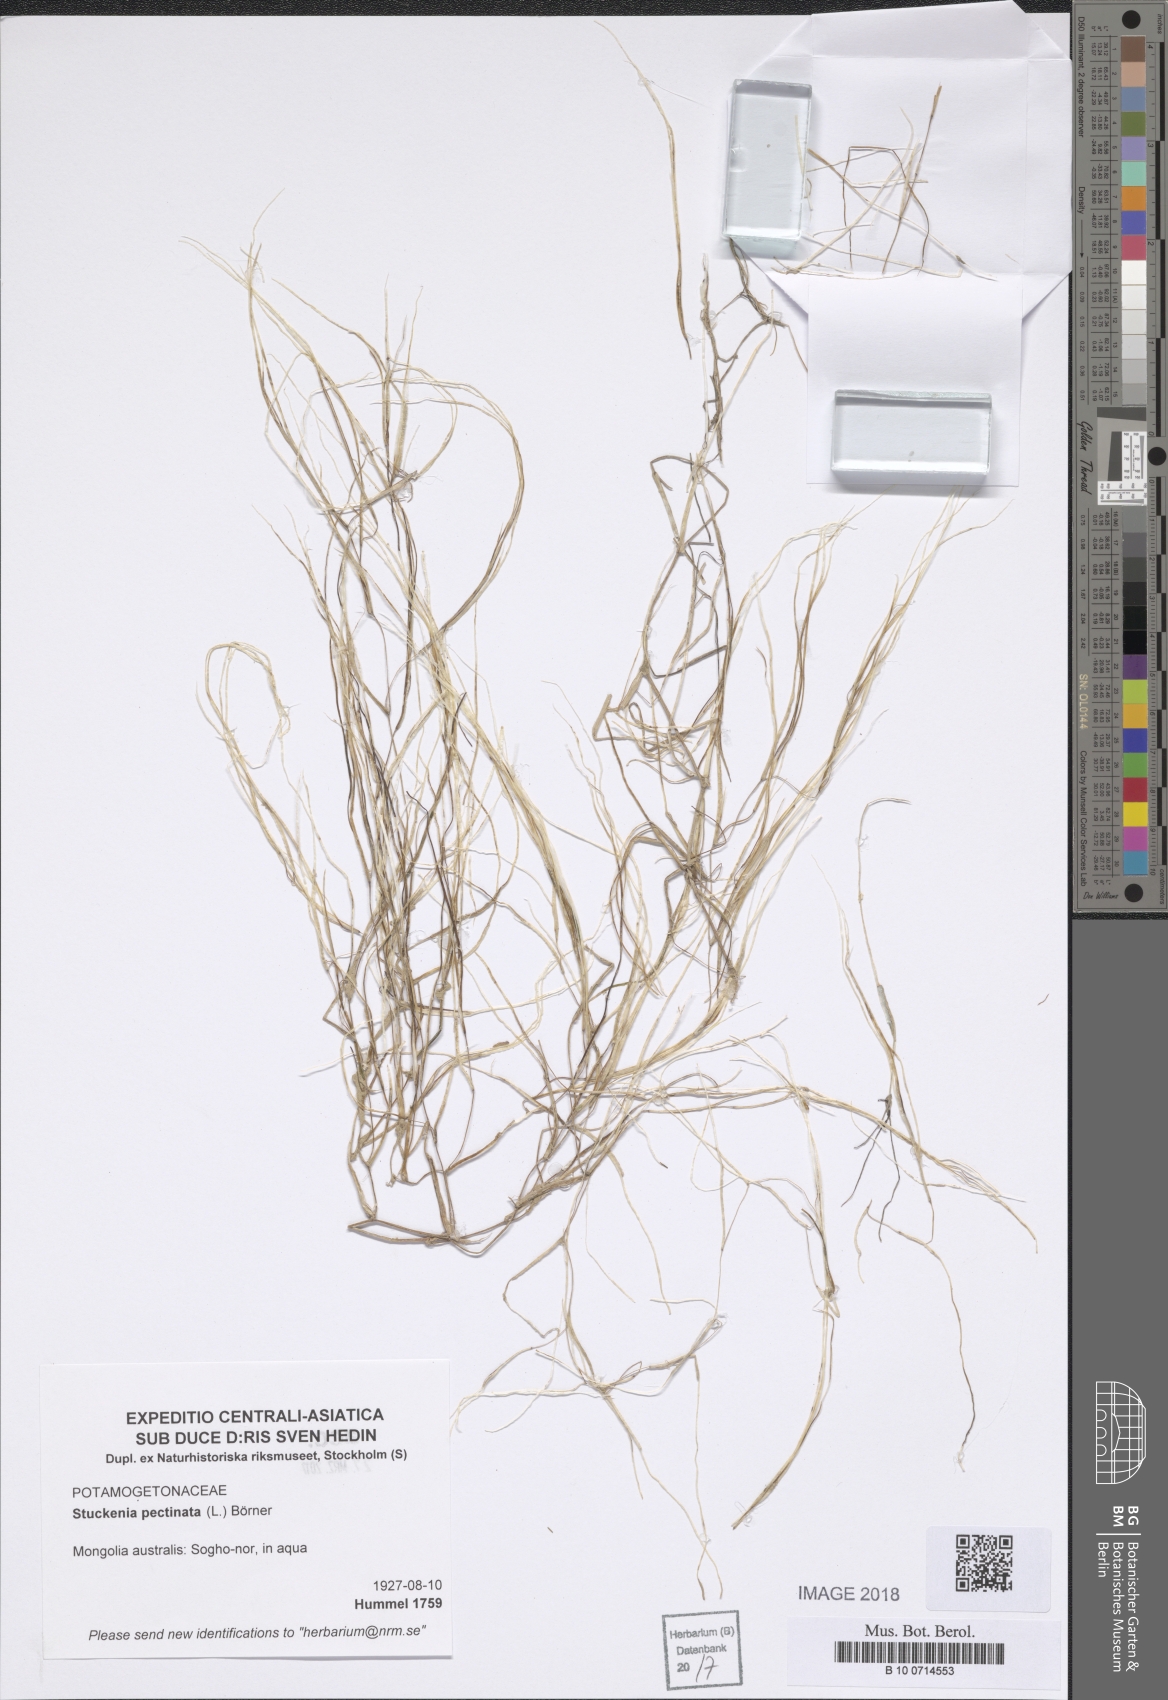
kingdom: Plantae
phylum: Tracheophyta
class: Liliopsida
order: Alismatales
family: Potamogetonaceae
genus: Stuckenia
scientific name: Stuckenia pectinata
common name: Sago pondweed
